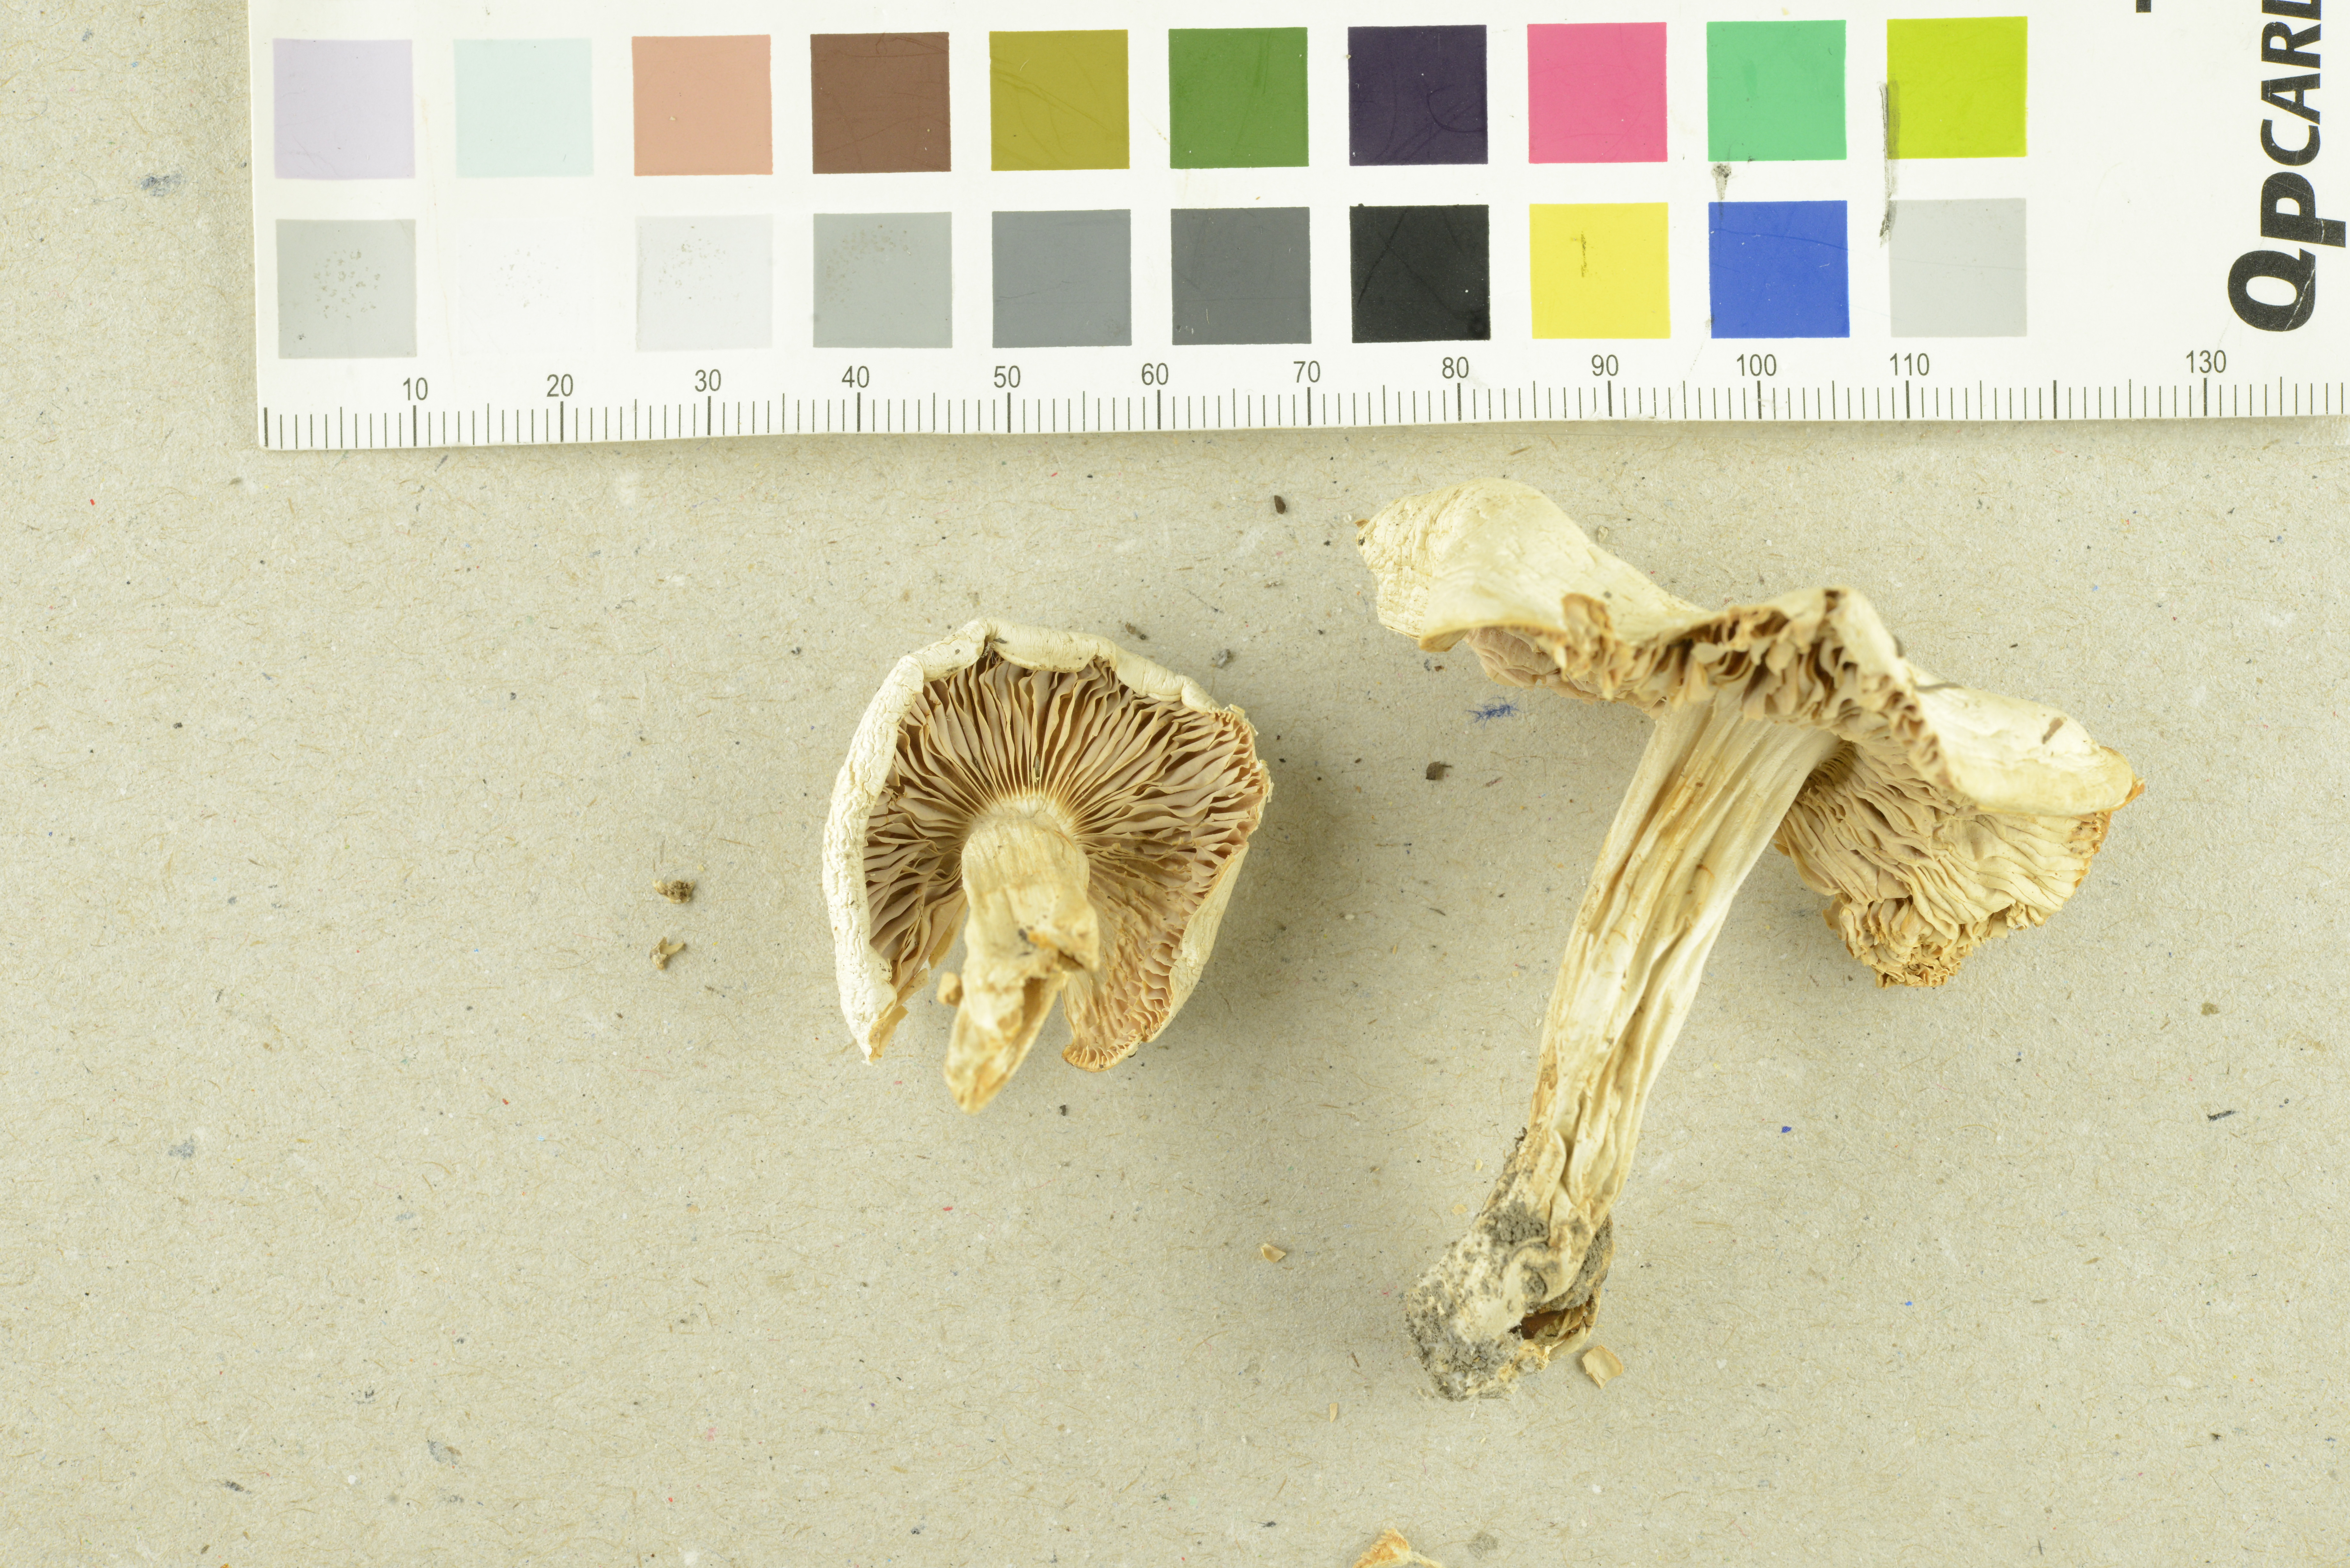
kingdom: Fungi
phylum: Basidiomycota
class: Agaricomycetes
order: Agaricales
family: Tricholomataceae
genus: Tricholoma
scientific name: Tricholoma columbetta
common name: Blue spot knight
